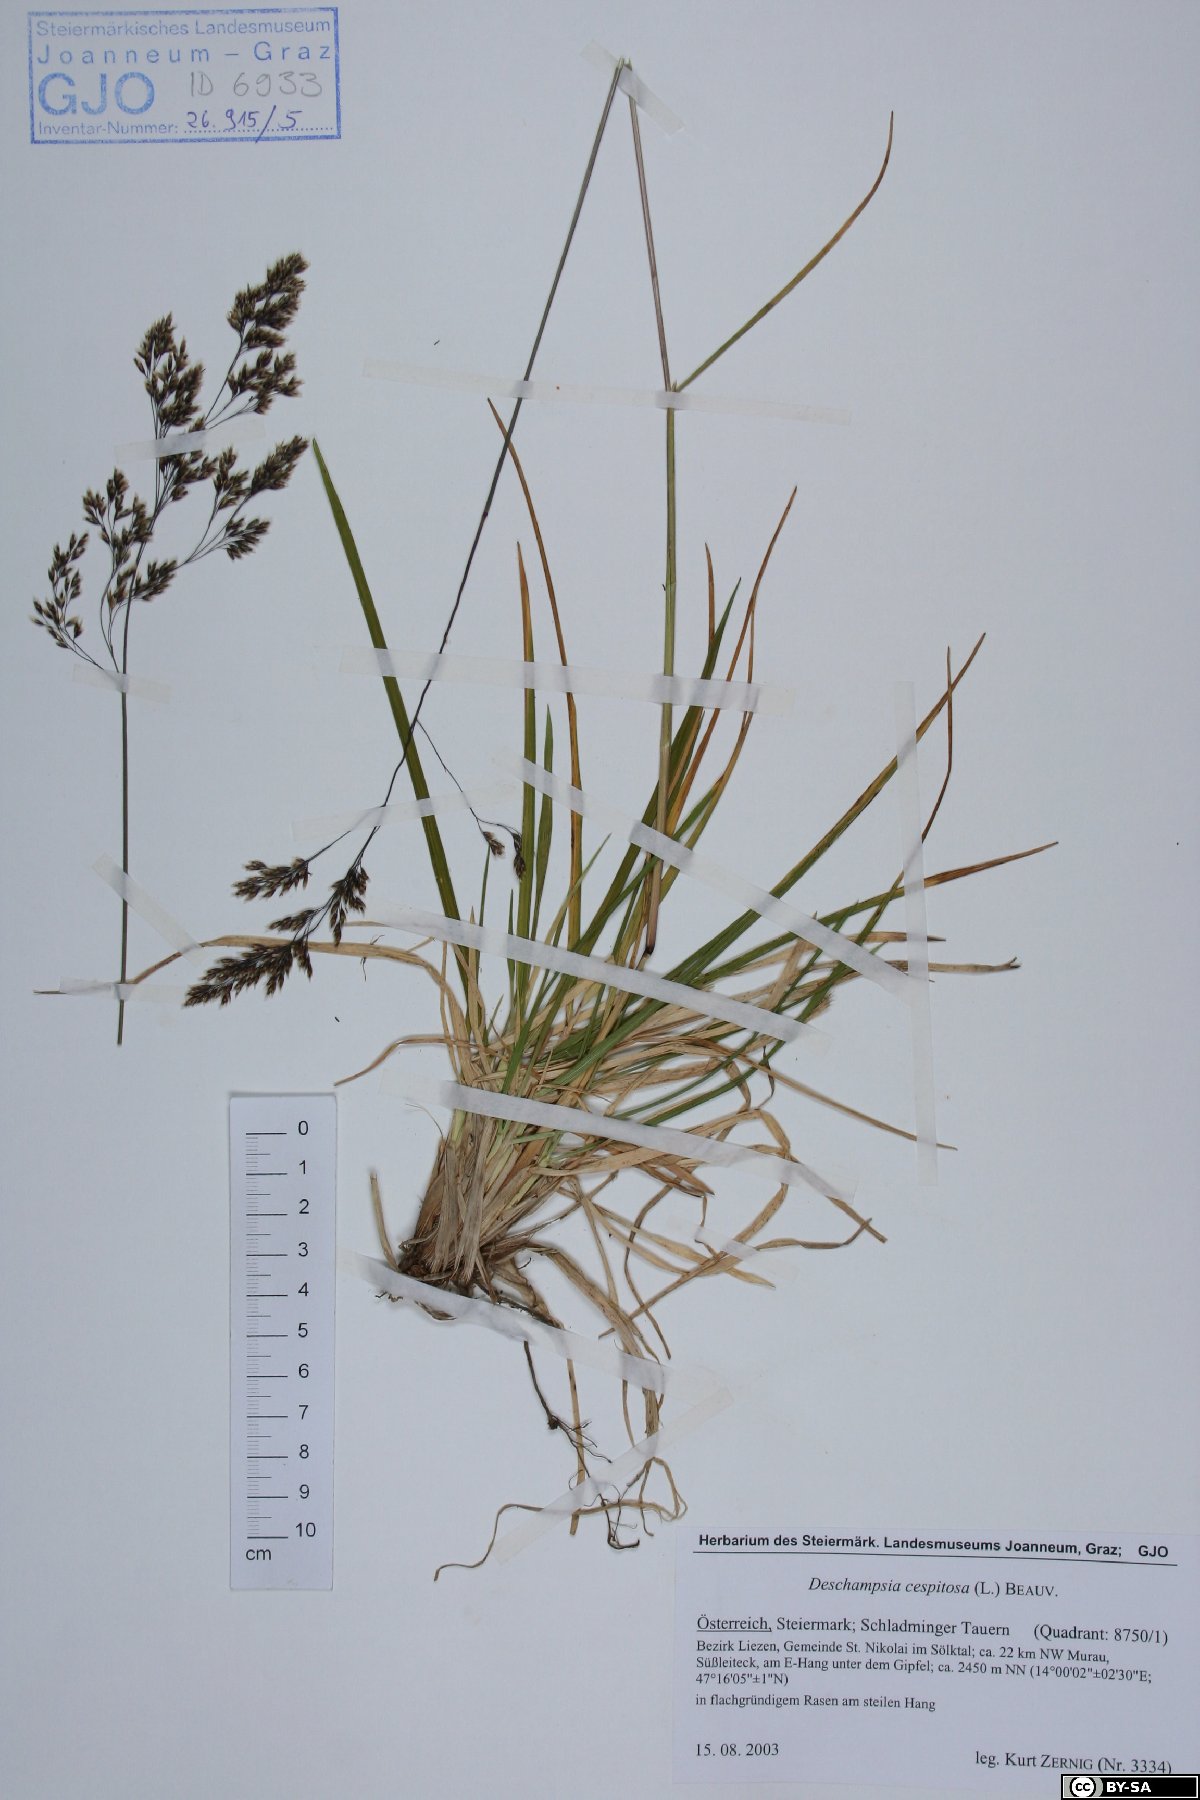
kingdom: Plantae
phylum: Tracheophyta
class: Liliopsida
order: Poales
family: Poaceae
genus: Deschampsia
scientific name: Deschampsia cespitosa
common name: Tufted hair-grass
